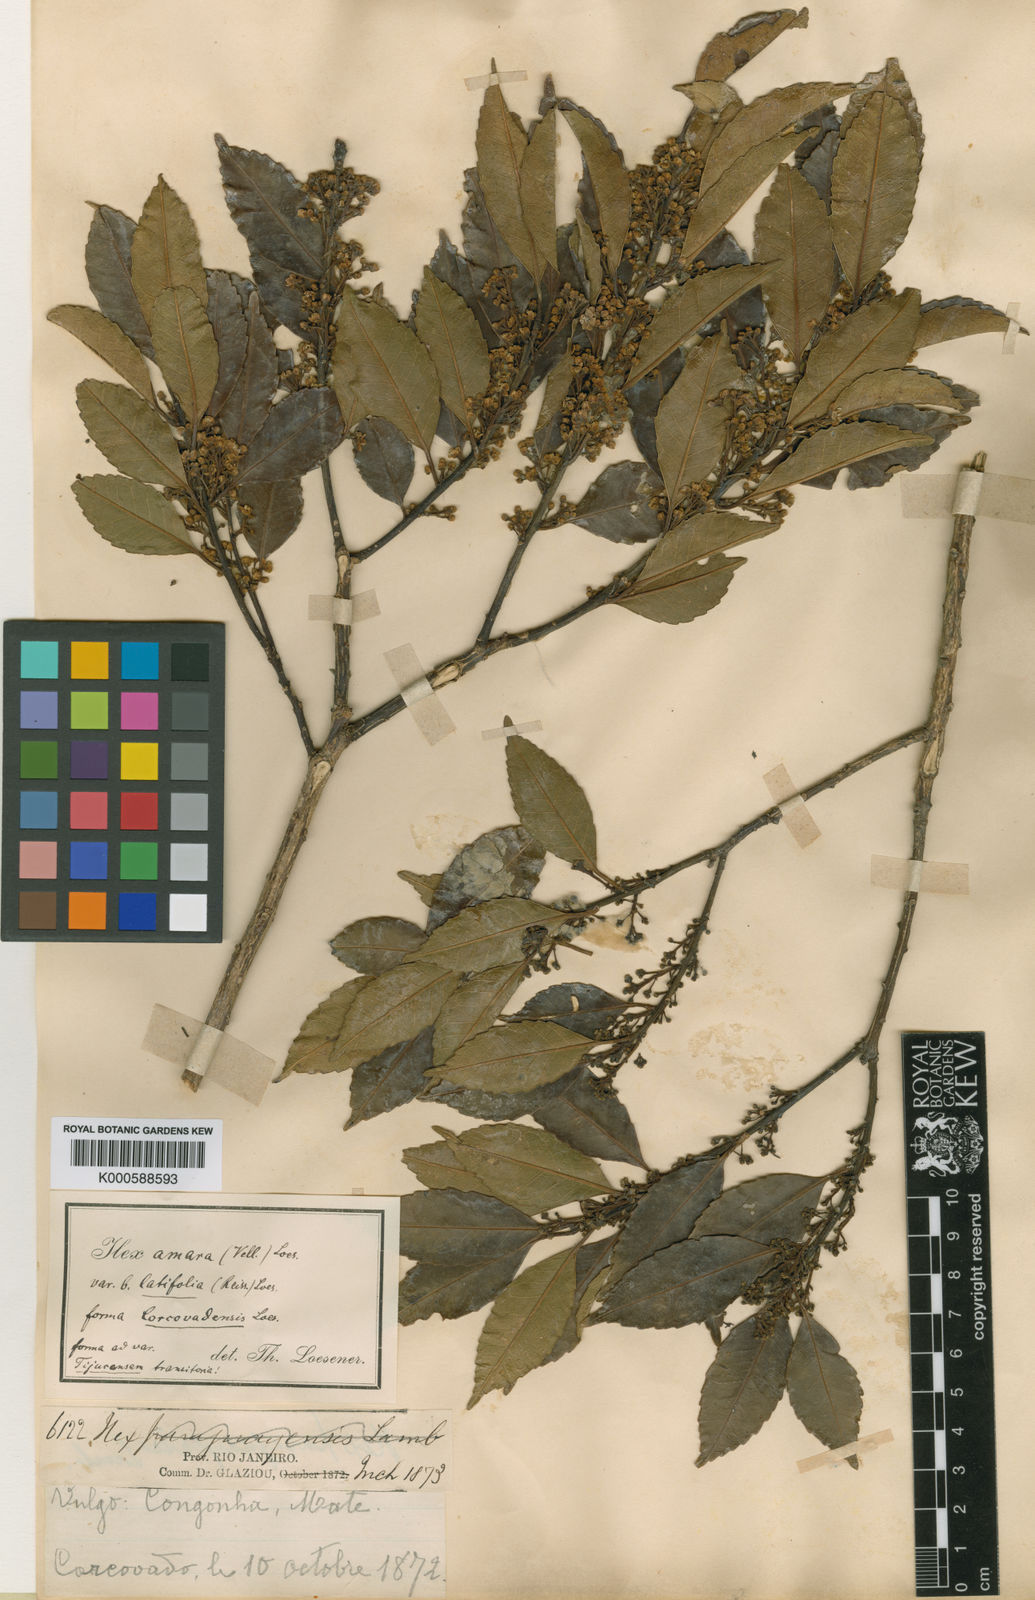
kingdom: Plantae
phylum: Tracheophyta
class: Magnoliopsida
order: Aquifoliales
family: Aquifoliaceae
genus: Ilex
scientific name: Ilex
